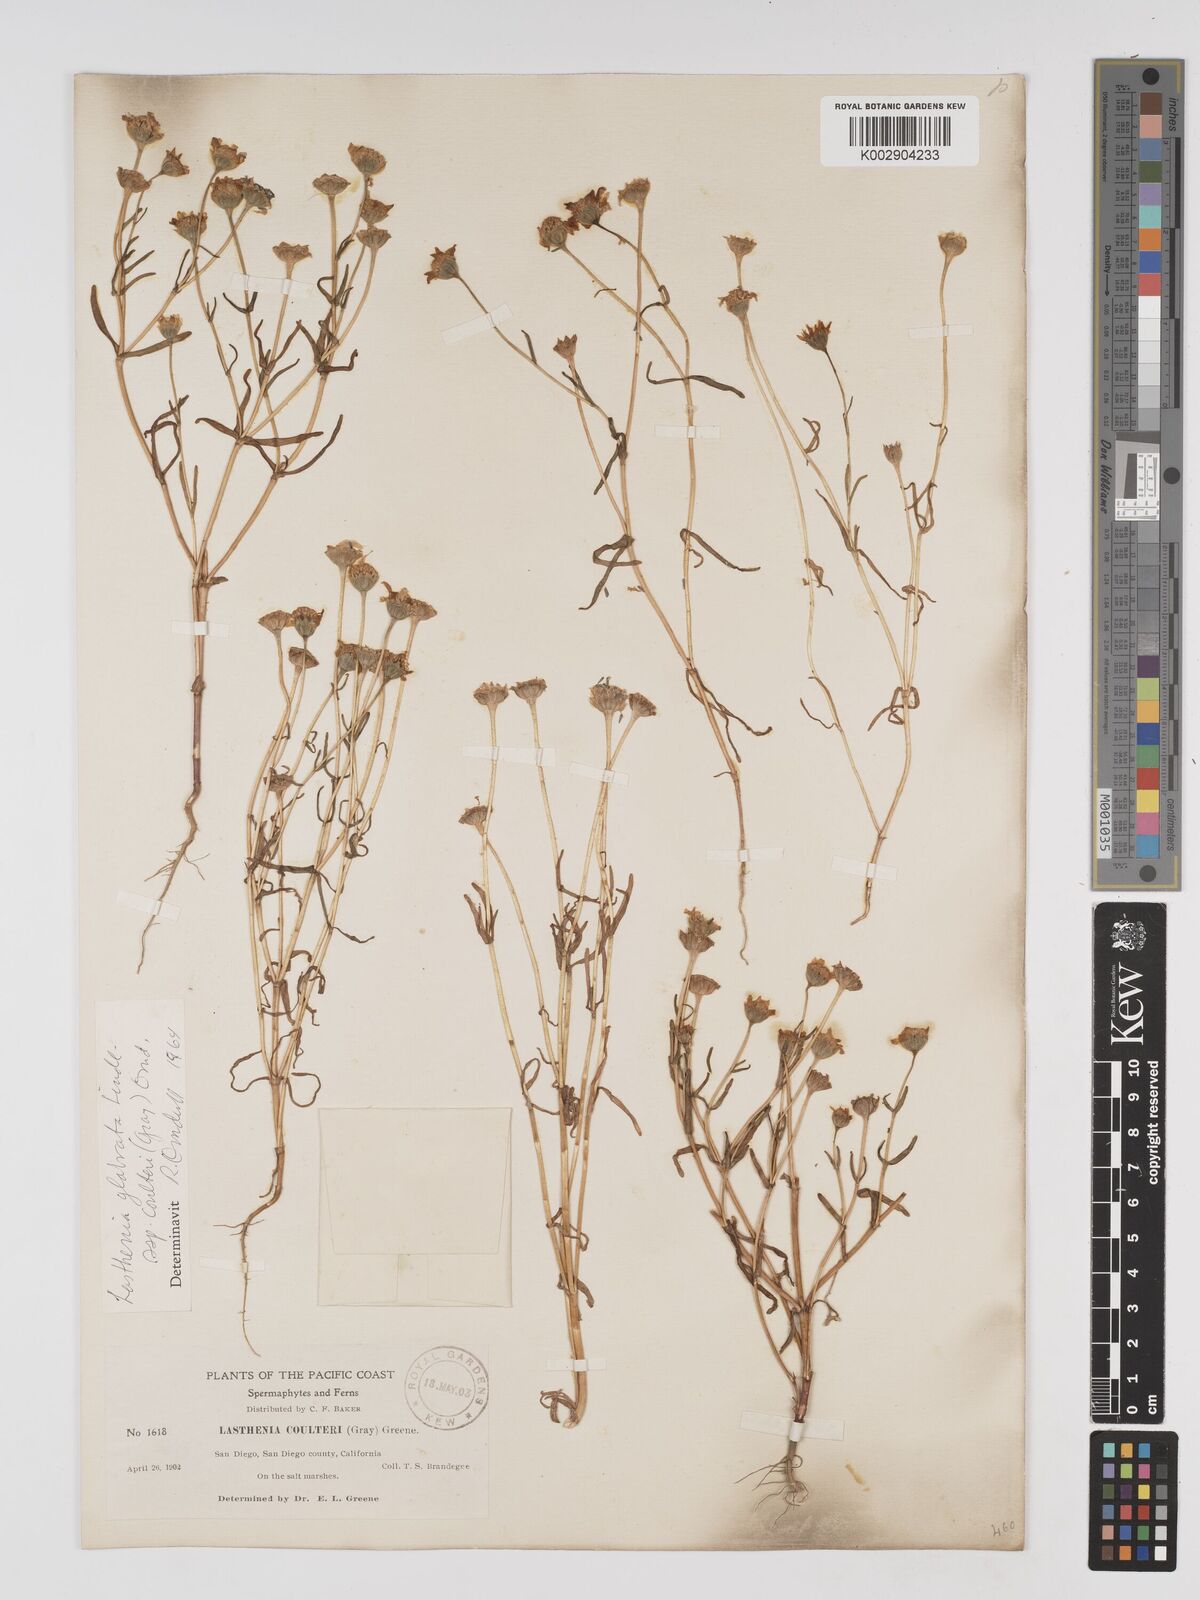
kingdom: Plantae
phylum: Tracheophyta
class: Magnoliopsida
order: Asterales
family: Asteraceae
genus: Lasthenia
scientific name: Lasthenia glabrata
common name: Yellow-ray lasthenia
